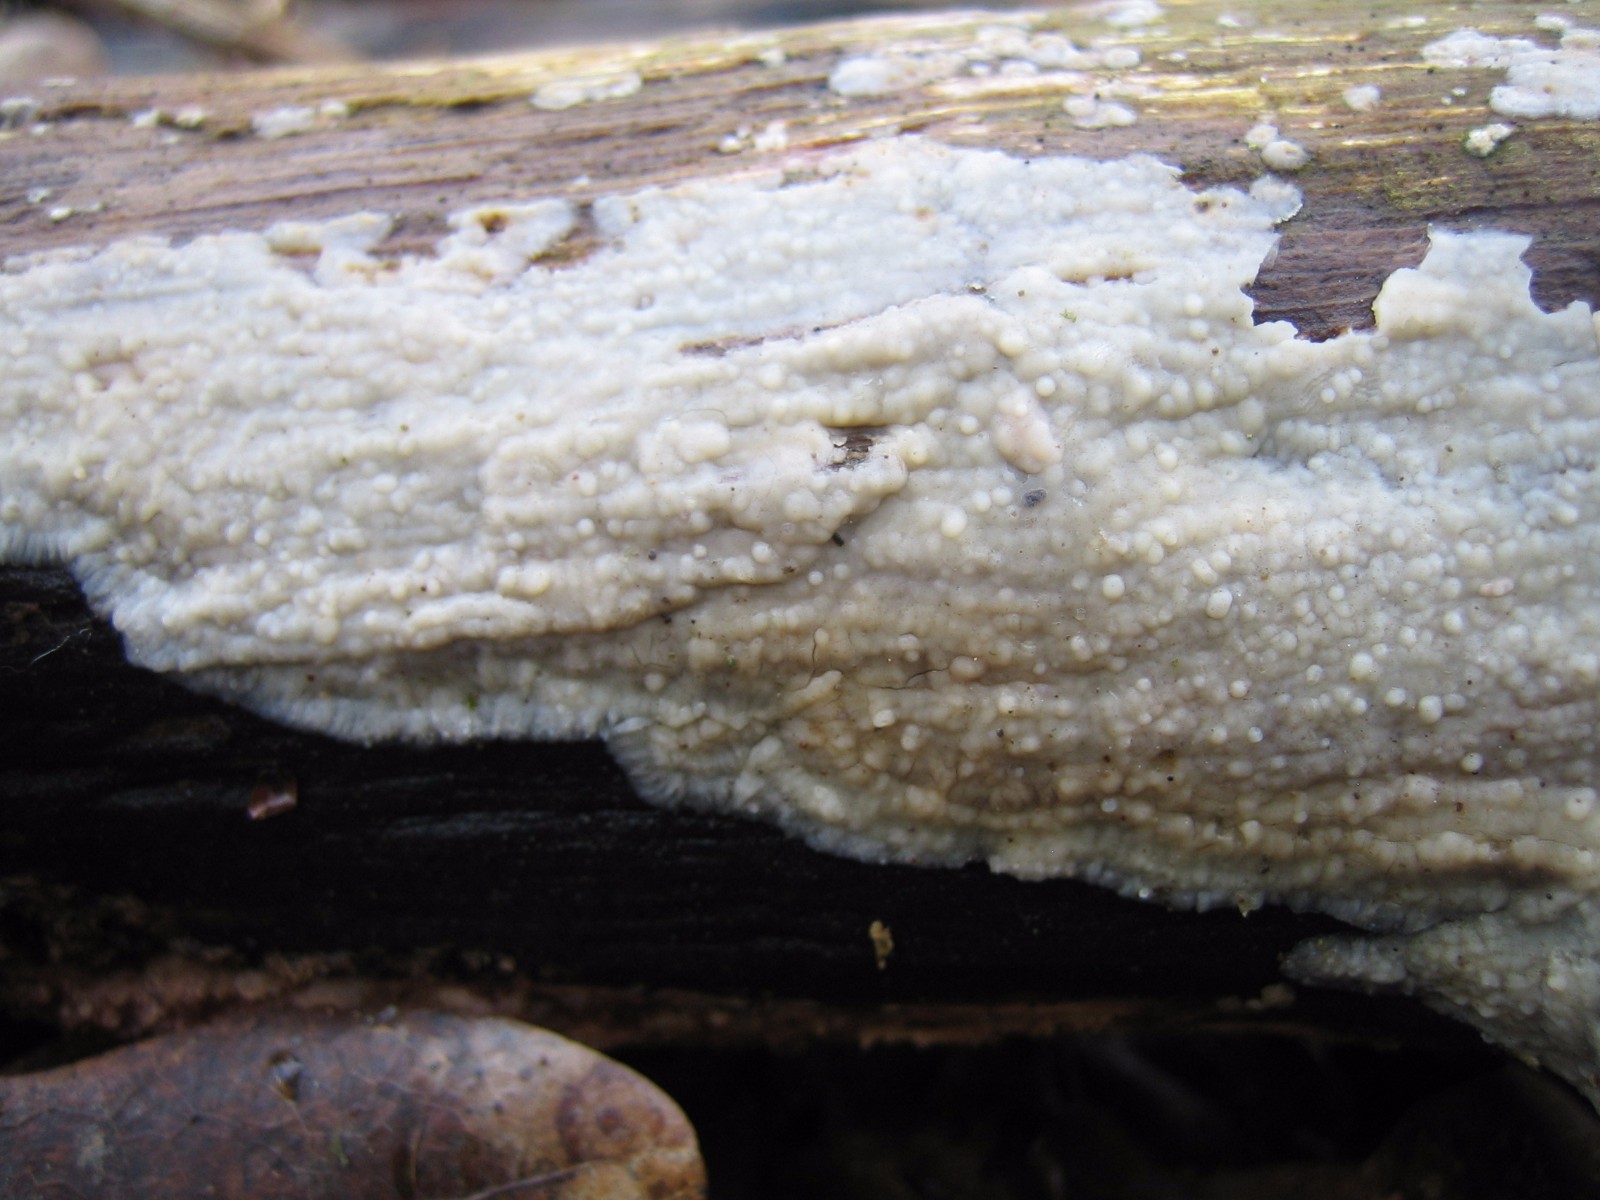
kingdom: Fungi
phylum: Basidiomycota
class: Agaricomycetes
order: Agaricales
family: Radulomycetaceae
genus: Radulomyces
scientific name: Radulomyces confluens
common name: glat naftalinskind
